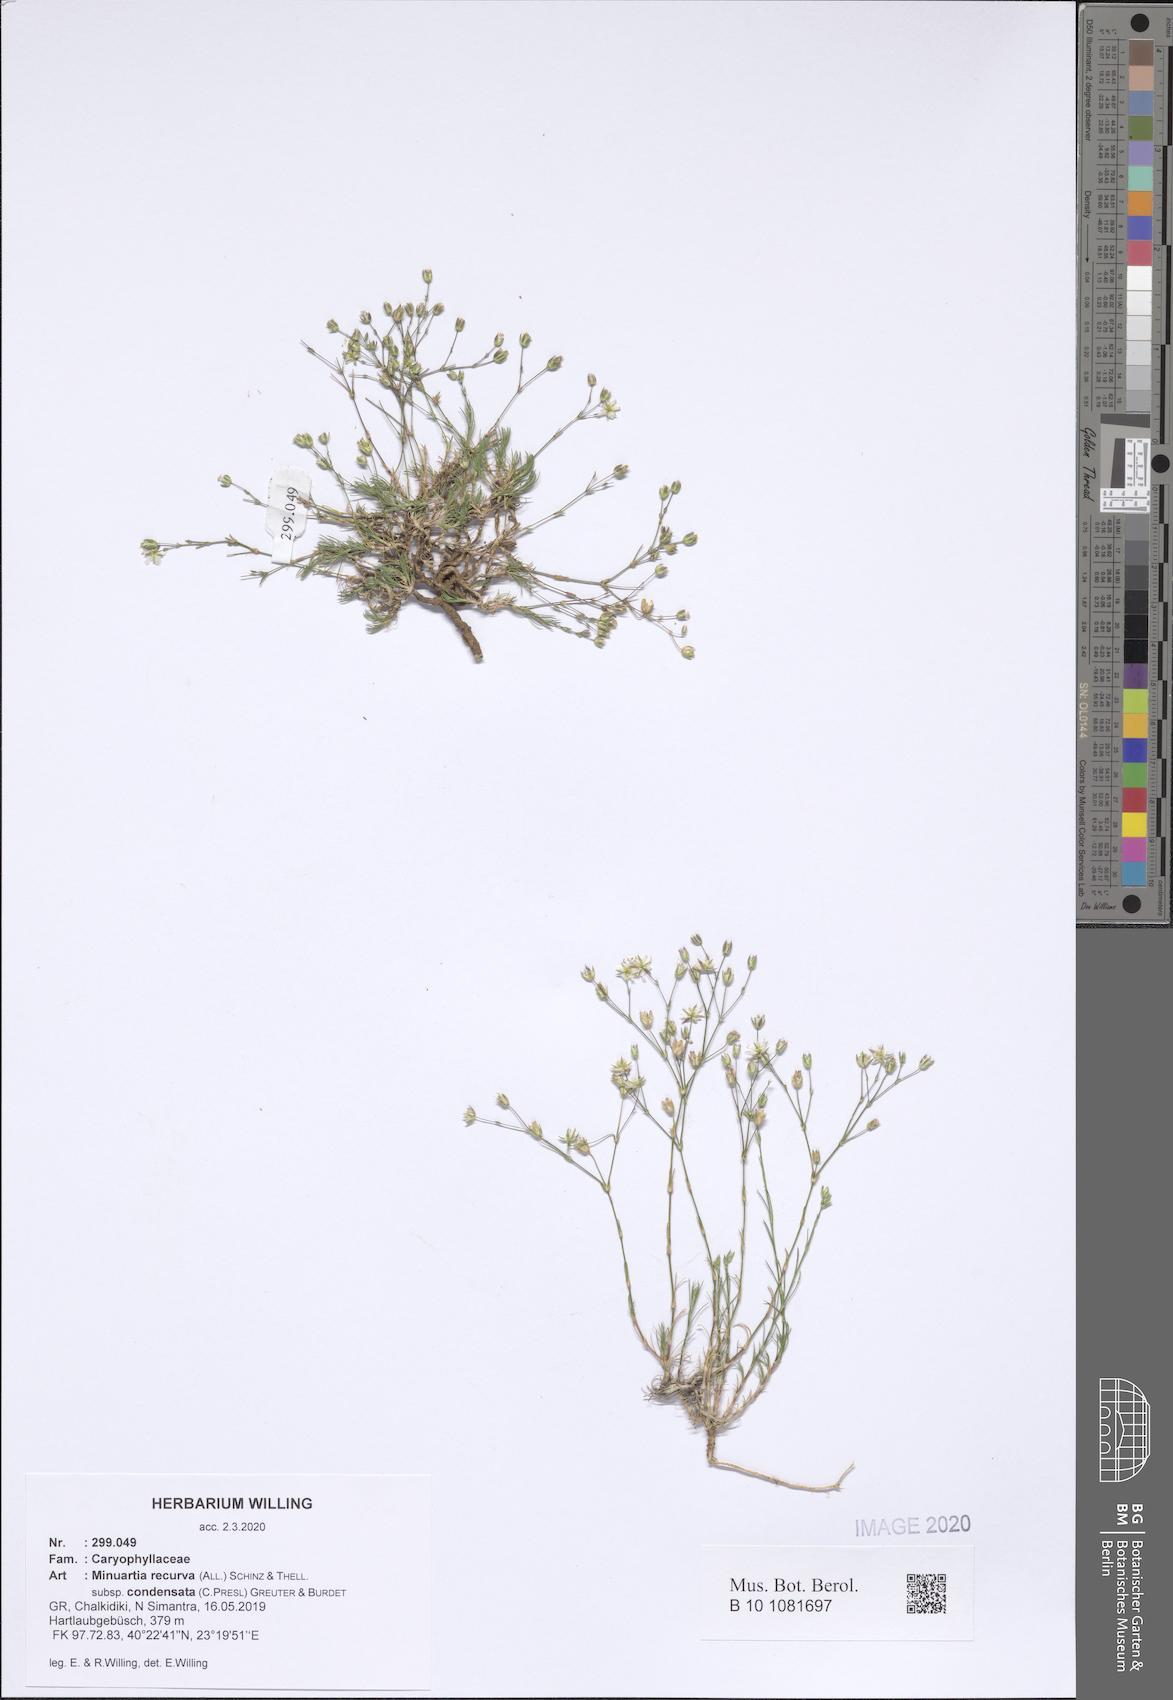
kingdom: Plantae
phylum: Tracheophyta
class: Magnoliopsida
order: Caryophyllales
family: Caryophyllaceae
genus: Minuartia
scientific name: Minuartia recurva
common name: Recurved sandwort
